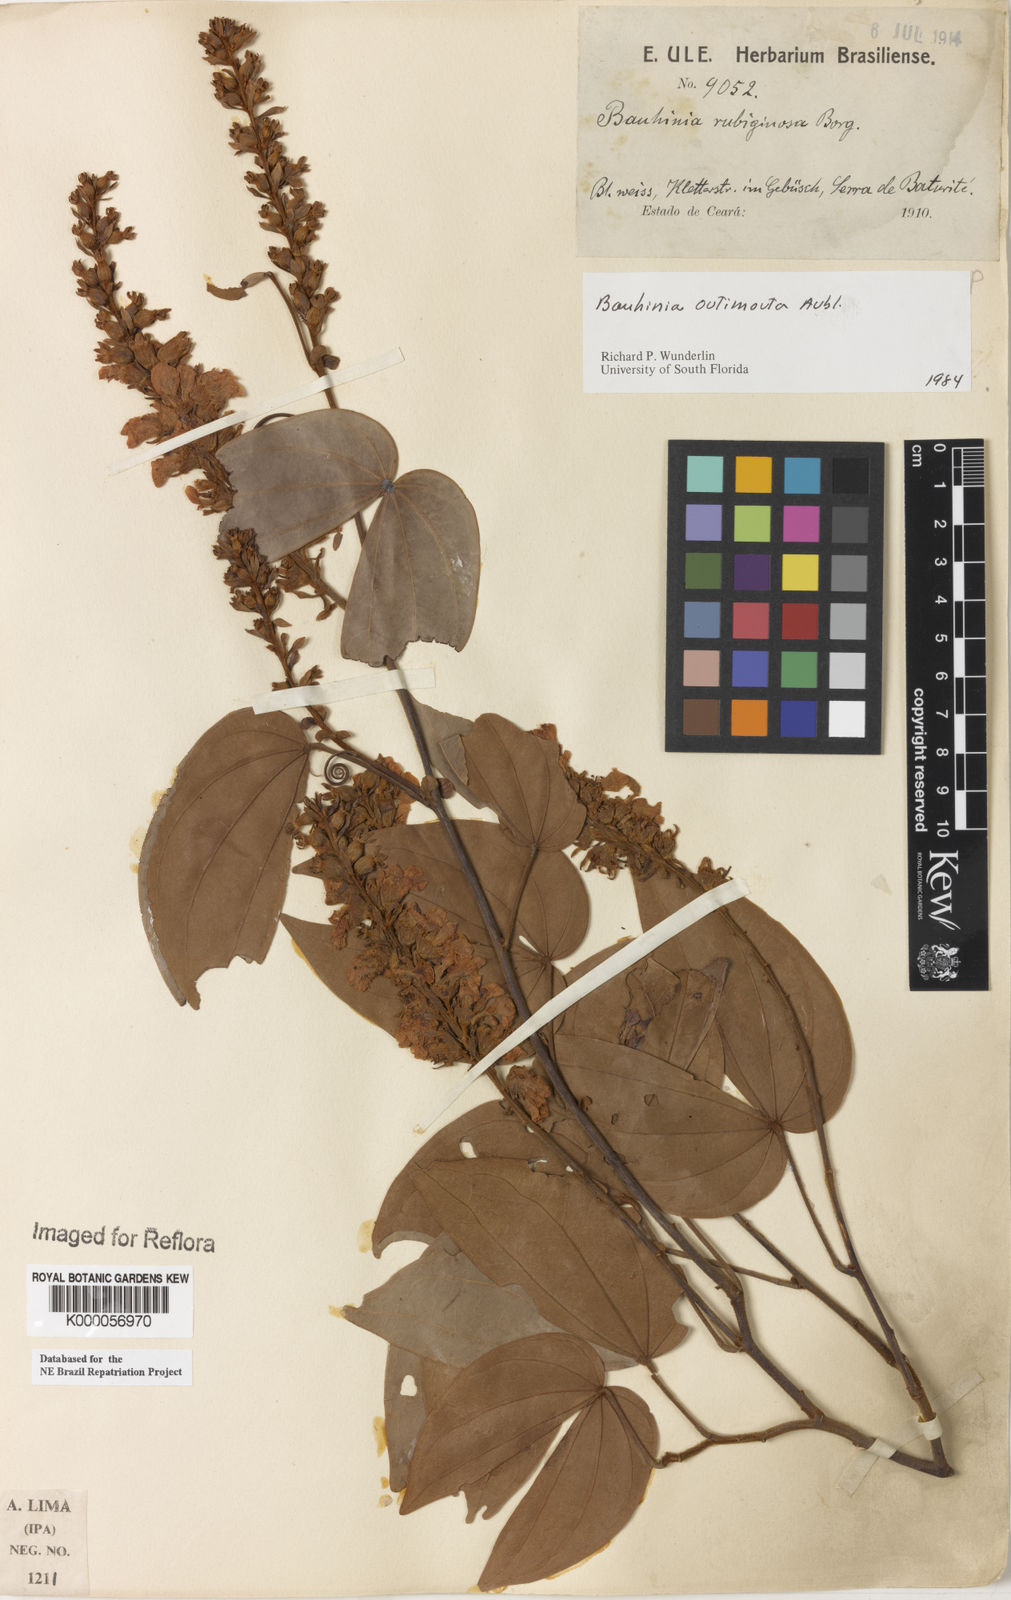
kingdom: Plantae
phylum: Tracheophyta
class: Magnoliopsida
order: Fabales
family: Fabaceae
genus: Schnella
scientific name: Schnella outimouta
